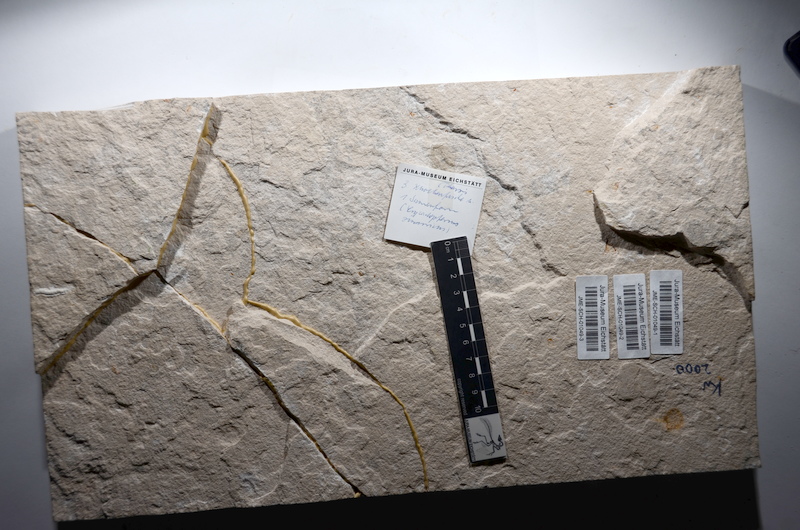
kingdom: Animalia
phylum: Chordata
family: Ascalaboidae
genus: Tharsis
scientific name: Tharsis dubius
